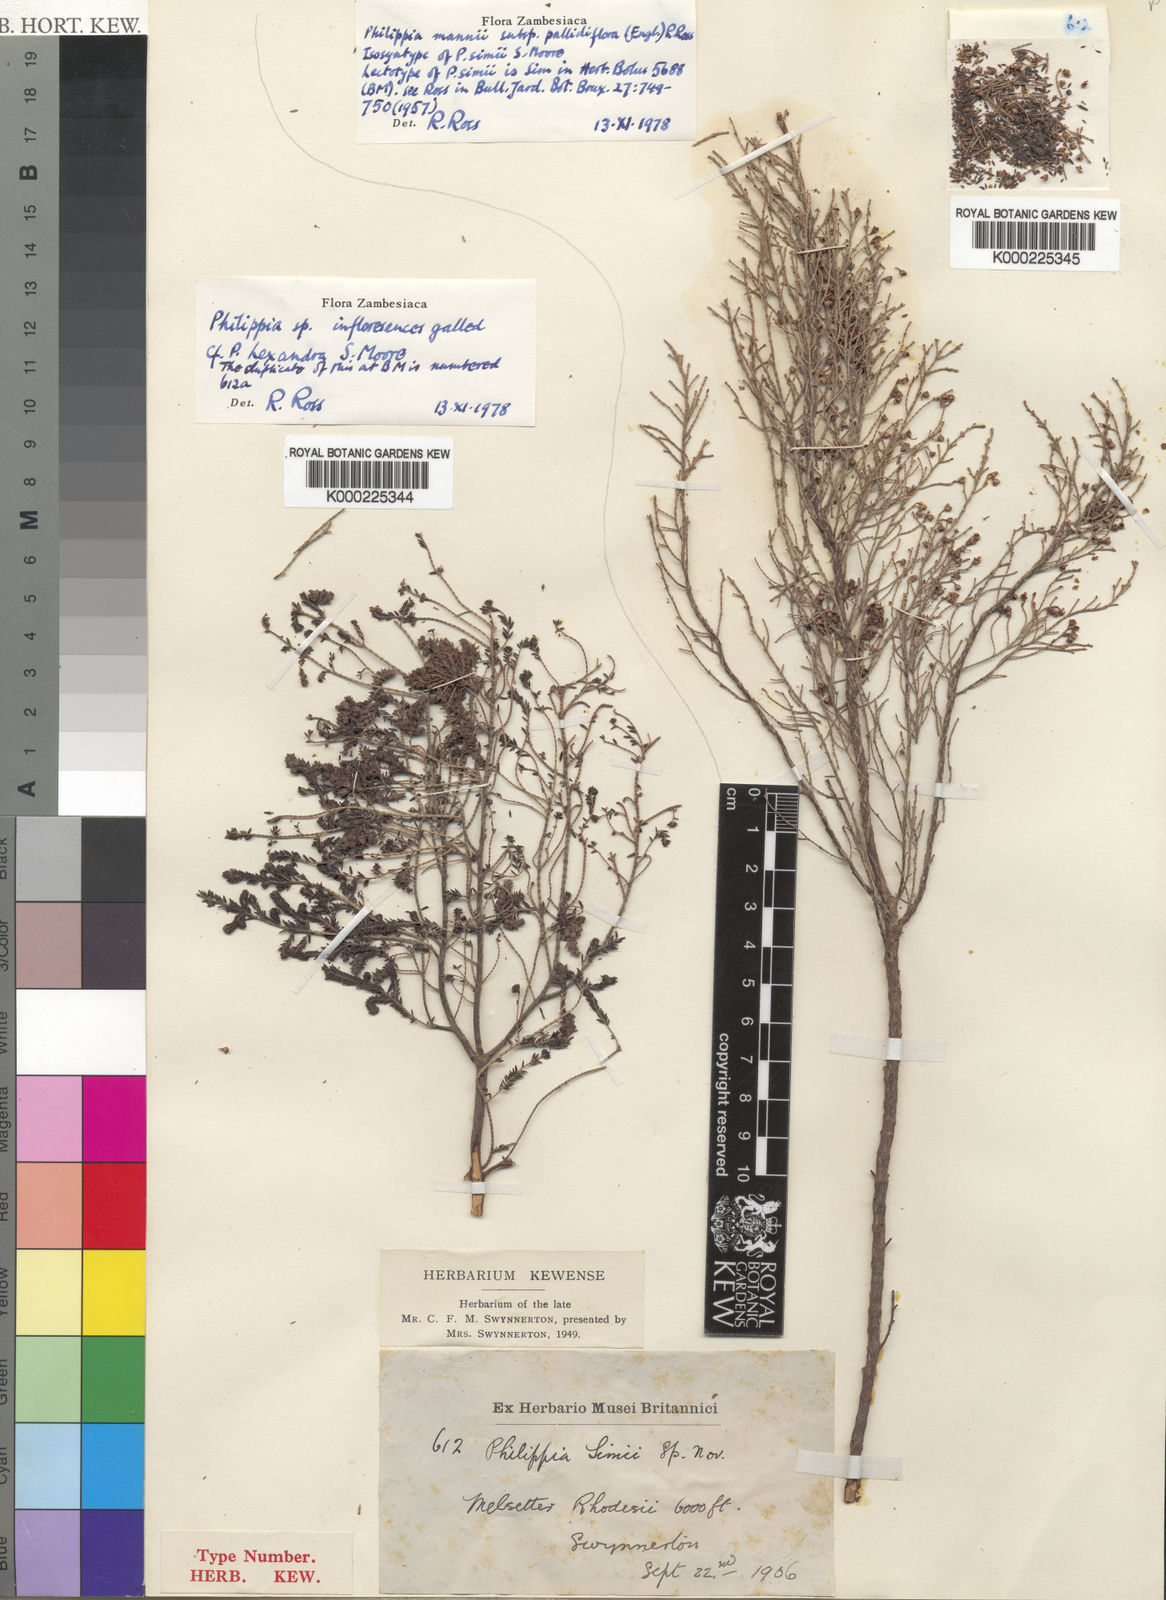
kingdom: Plantae
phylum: Tracheophyta
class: Magnoliopsida
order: Ericales
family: Ericaceae
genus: Erica
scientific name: Erica mannii
